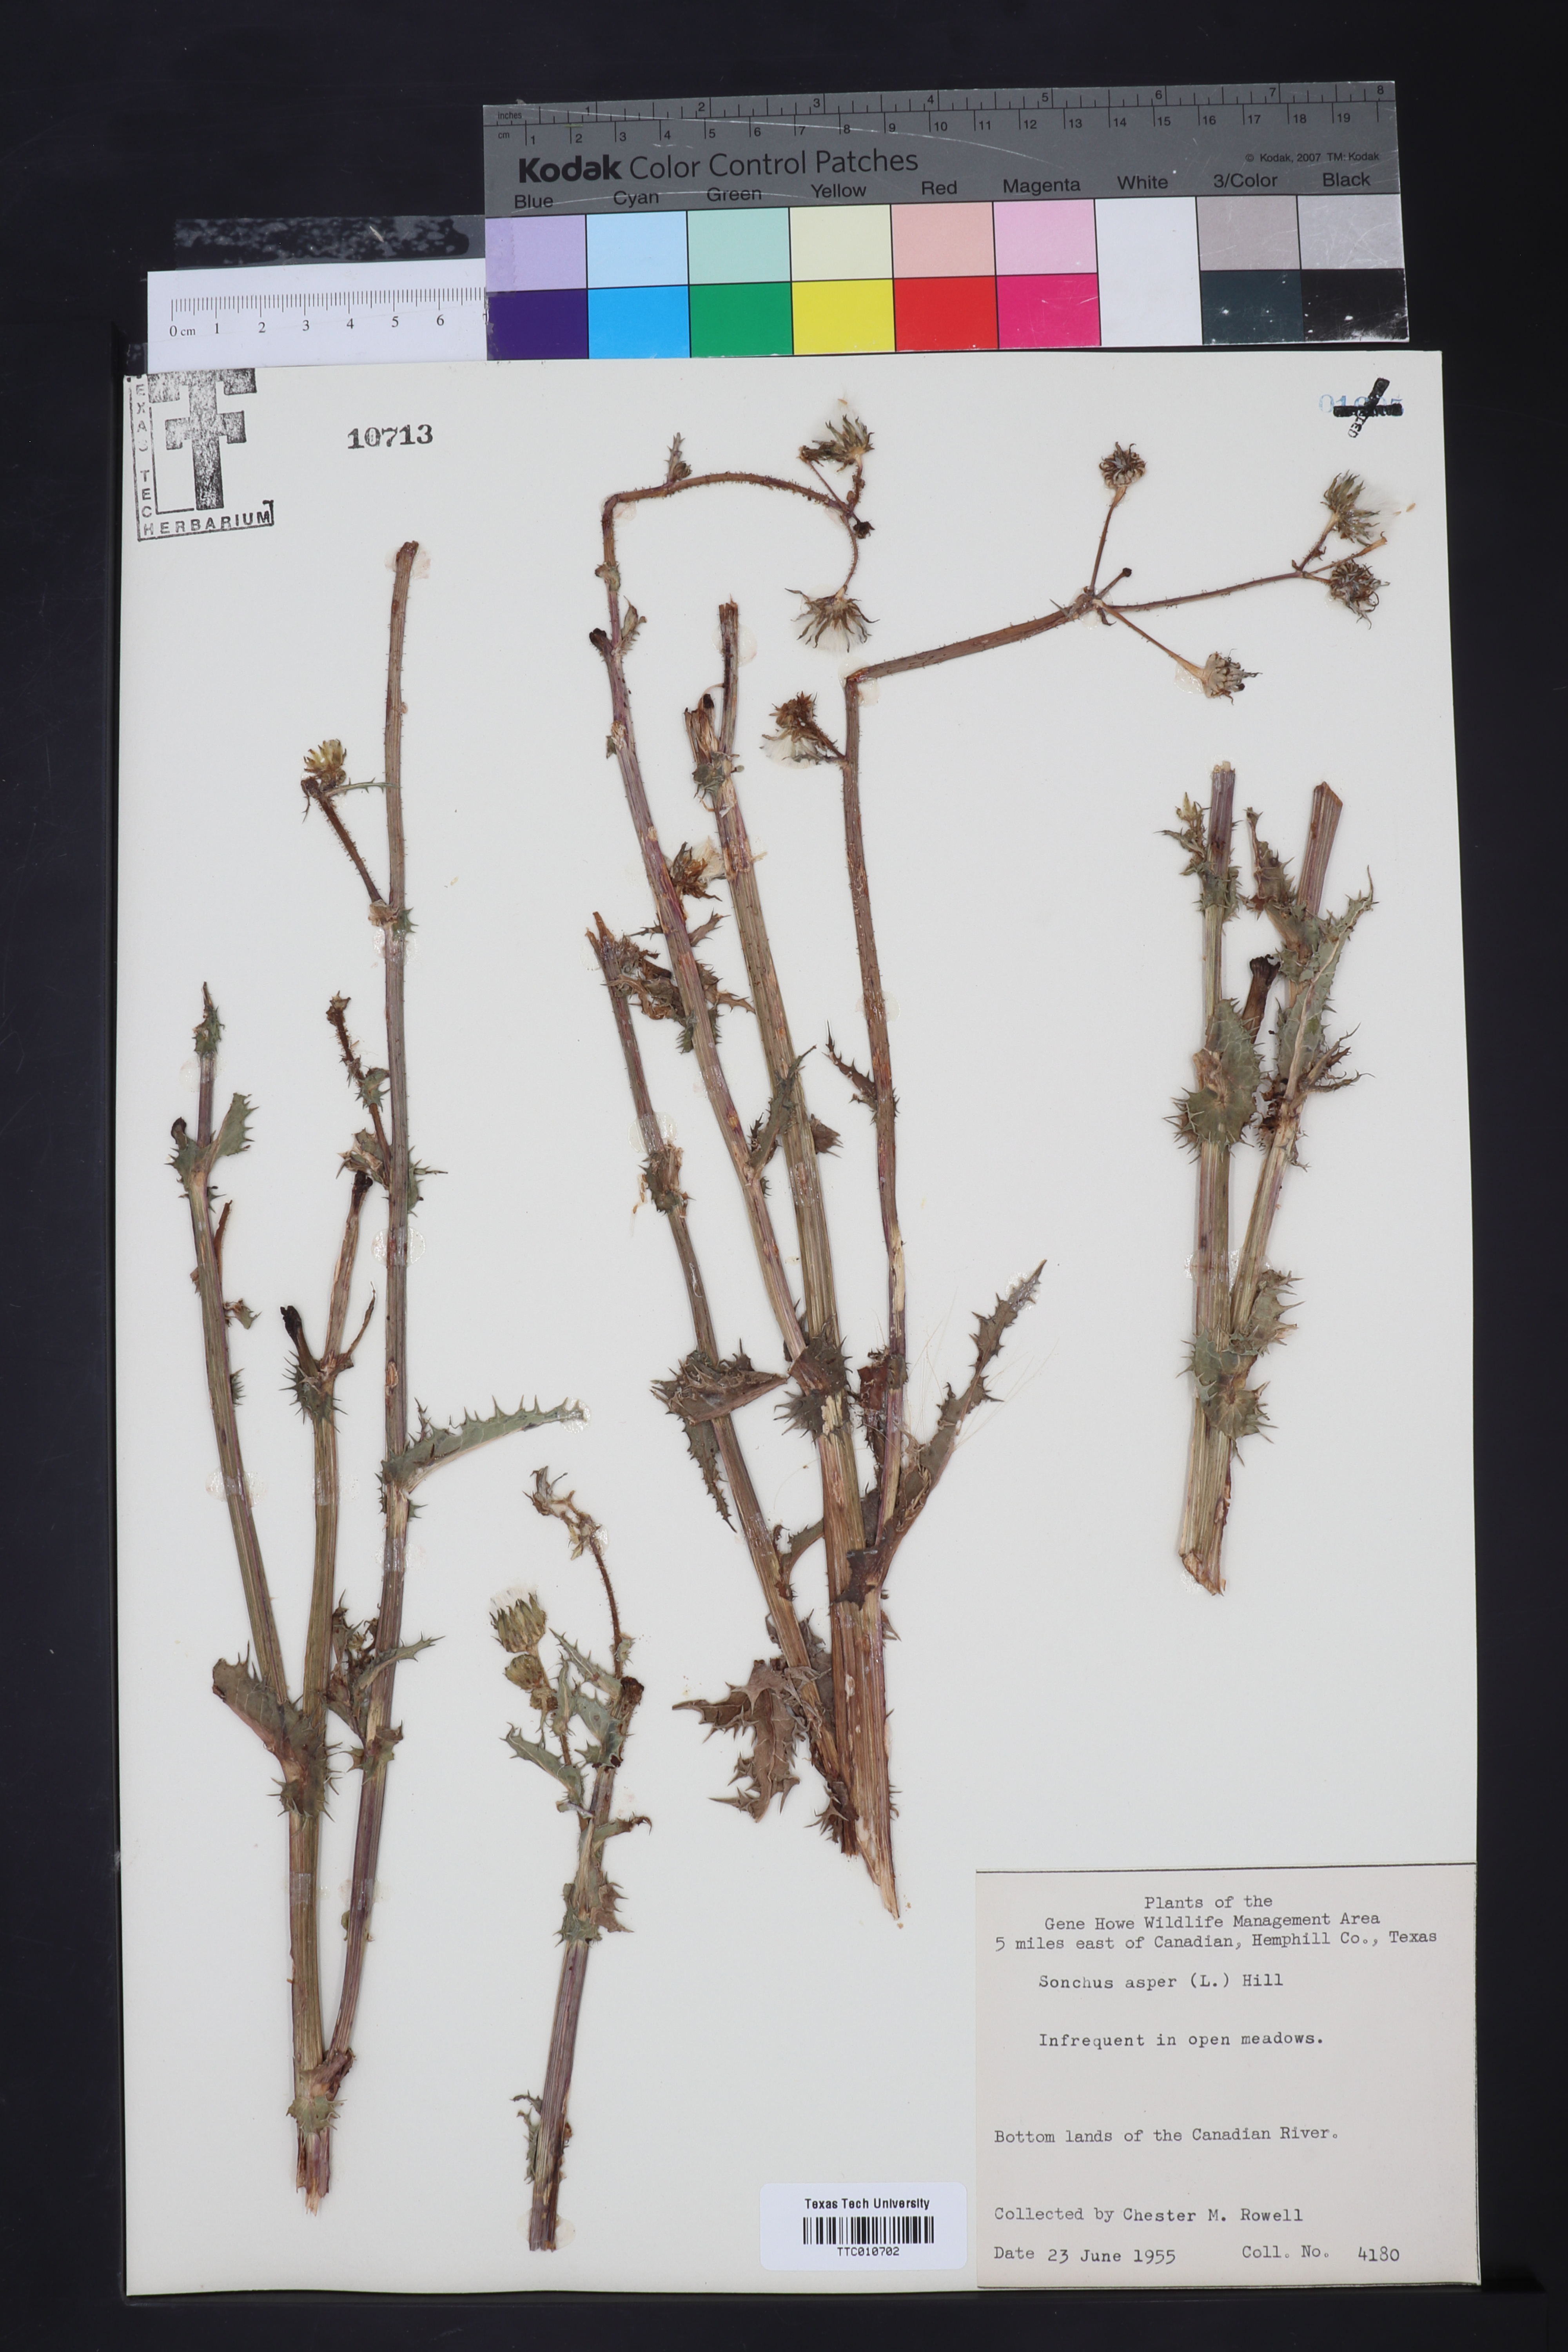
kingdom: Plantae
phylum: Tracheophyta
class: Magnoliopsida
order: Asterales
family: Asteraceae
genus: Sonchus
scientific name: Sonchus asper
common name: Prickly sow-thistle
